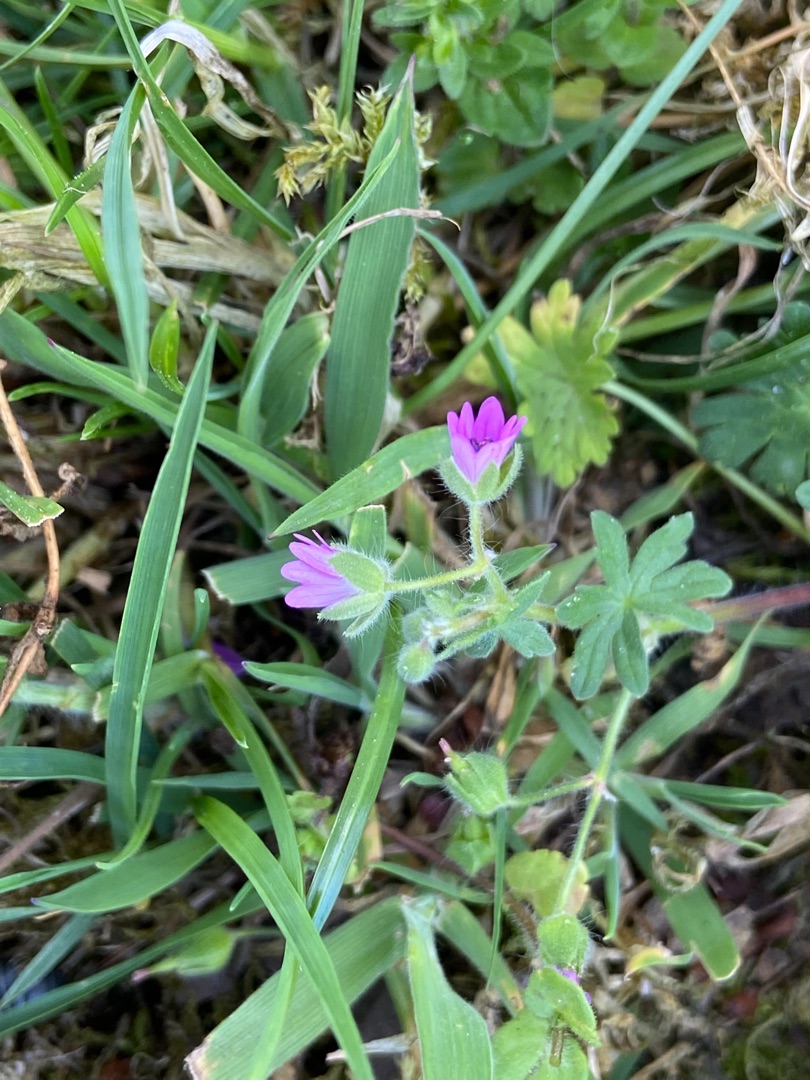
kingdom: Plantae
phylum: Tracheophyta
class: Magnoliopsida
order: Geraniales
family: Geraniaceae
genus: Geranium
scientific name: Geranium molle
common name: Blød storkenæb
